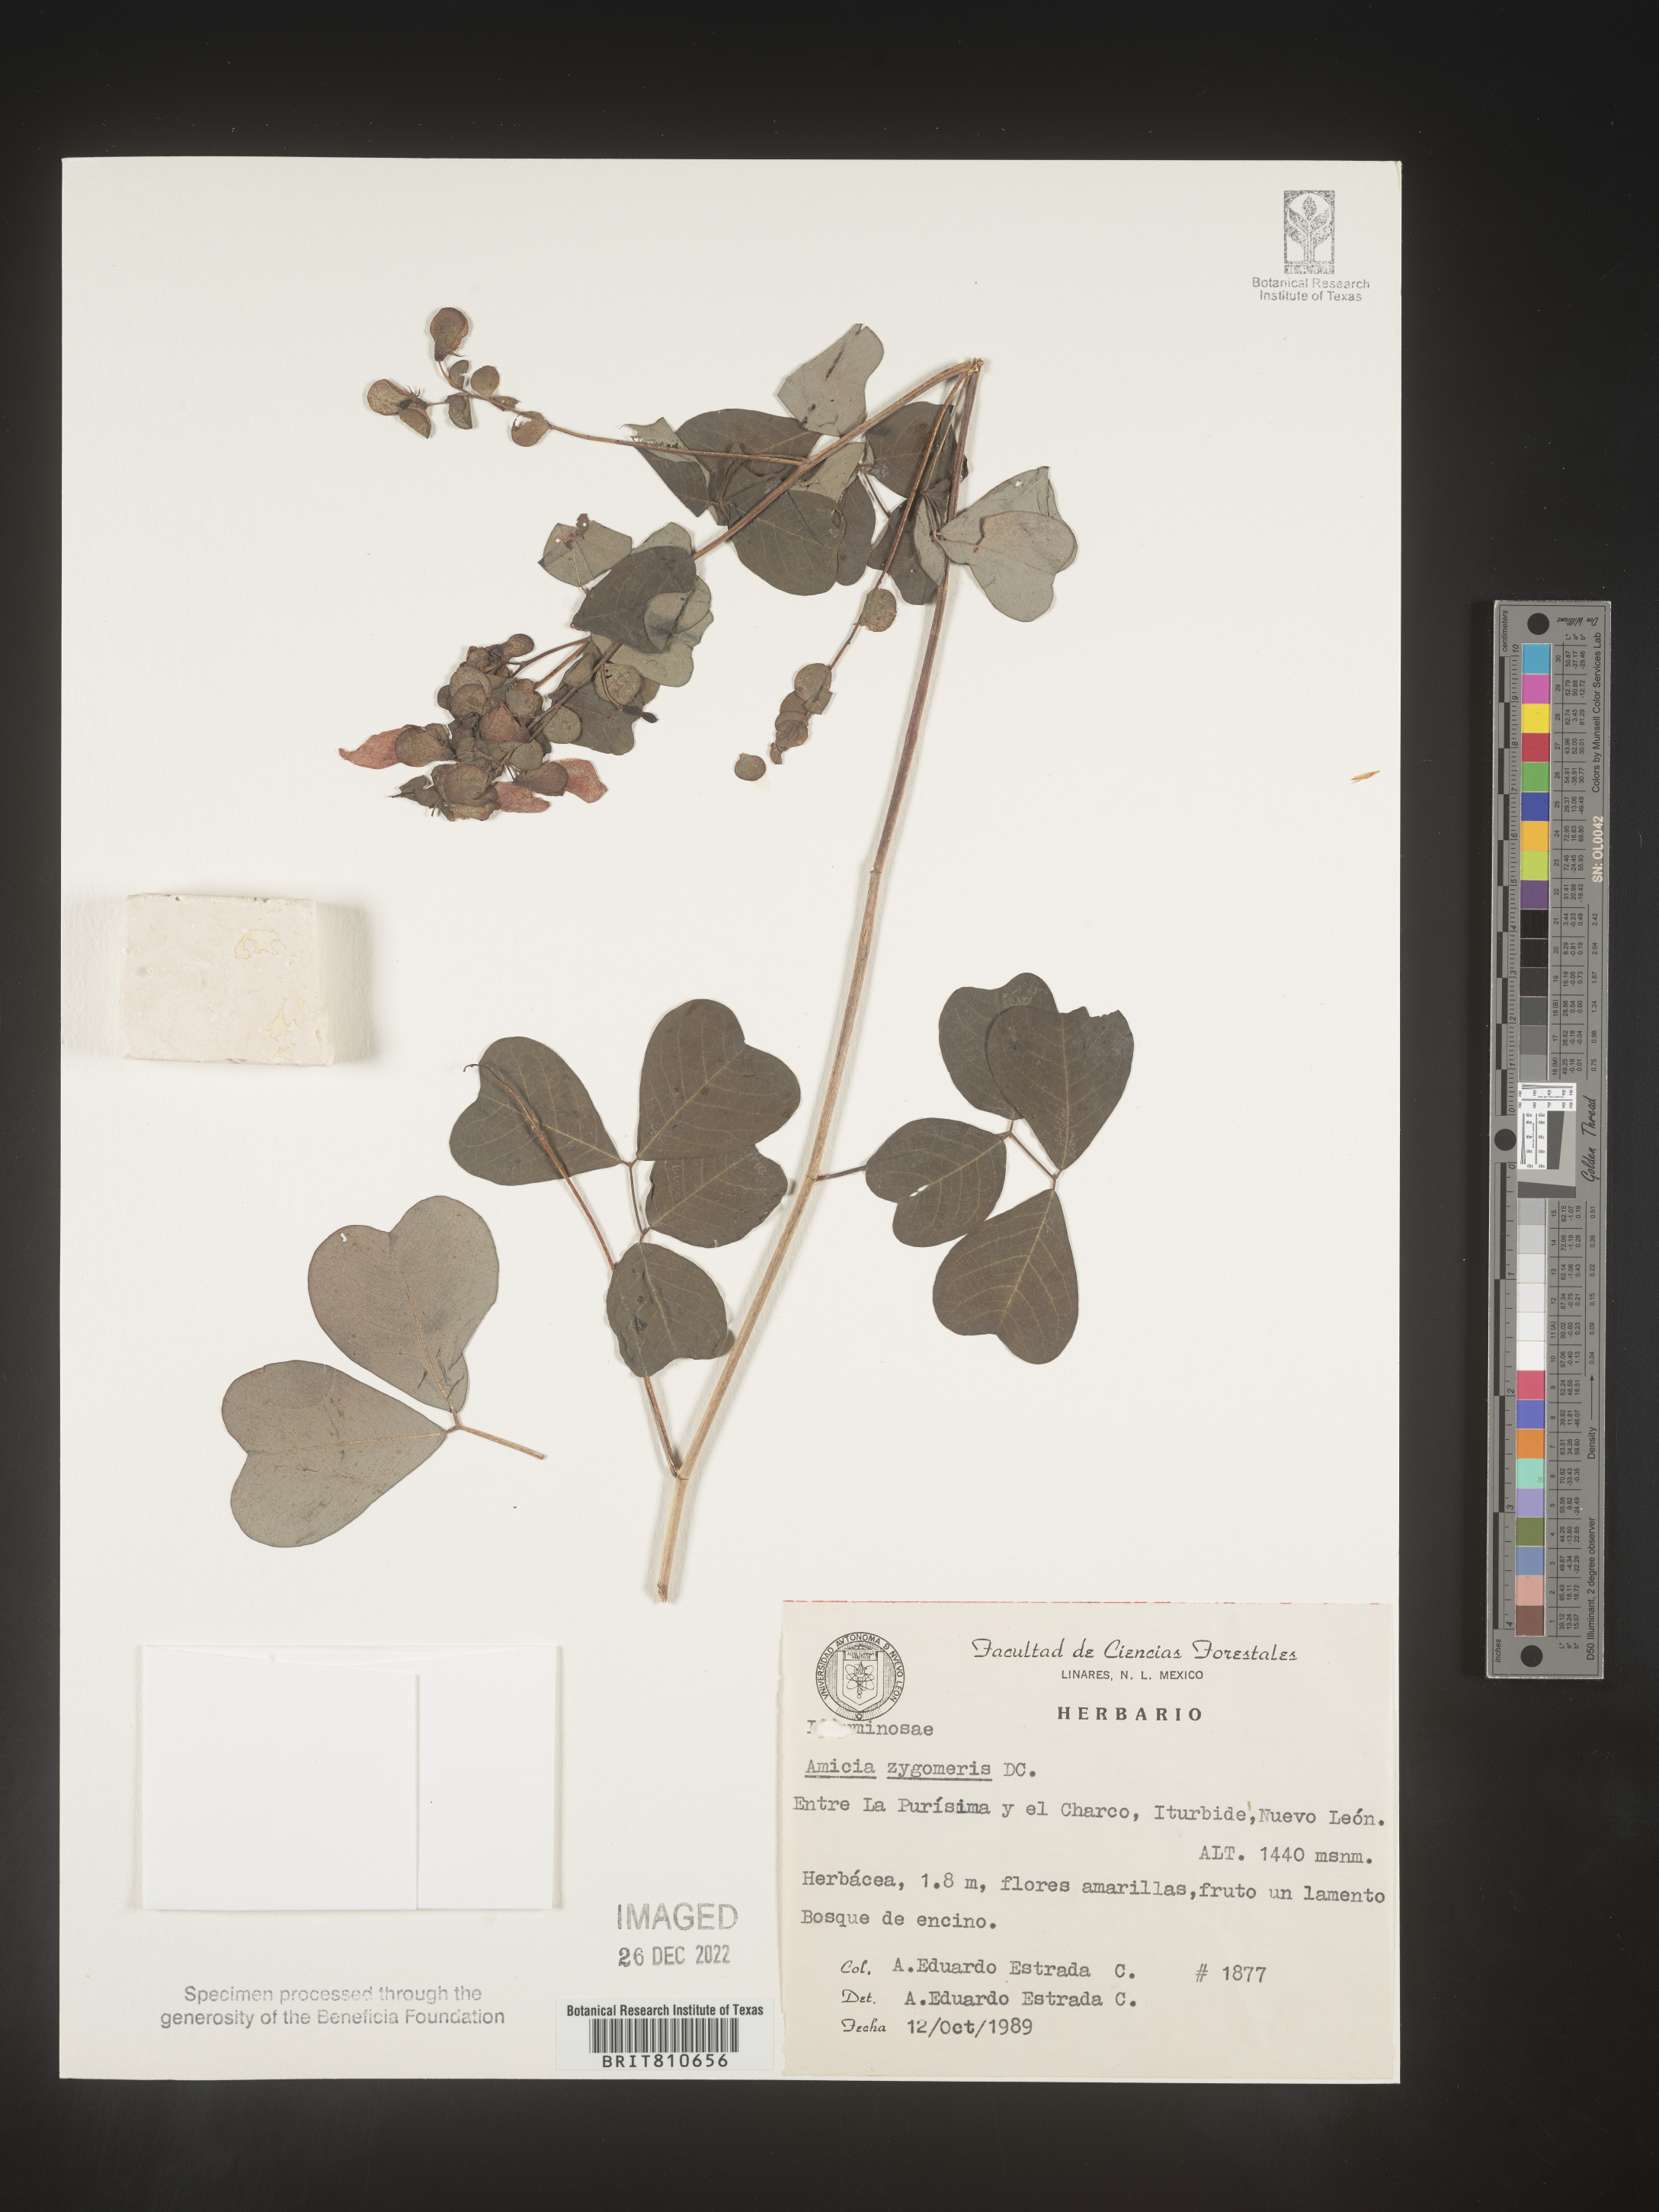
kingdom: Plantae
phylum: Tracheophyta
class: Magnoliopsida
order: Fabales
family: Fabaceae
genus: Amicia
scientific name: Amicia
